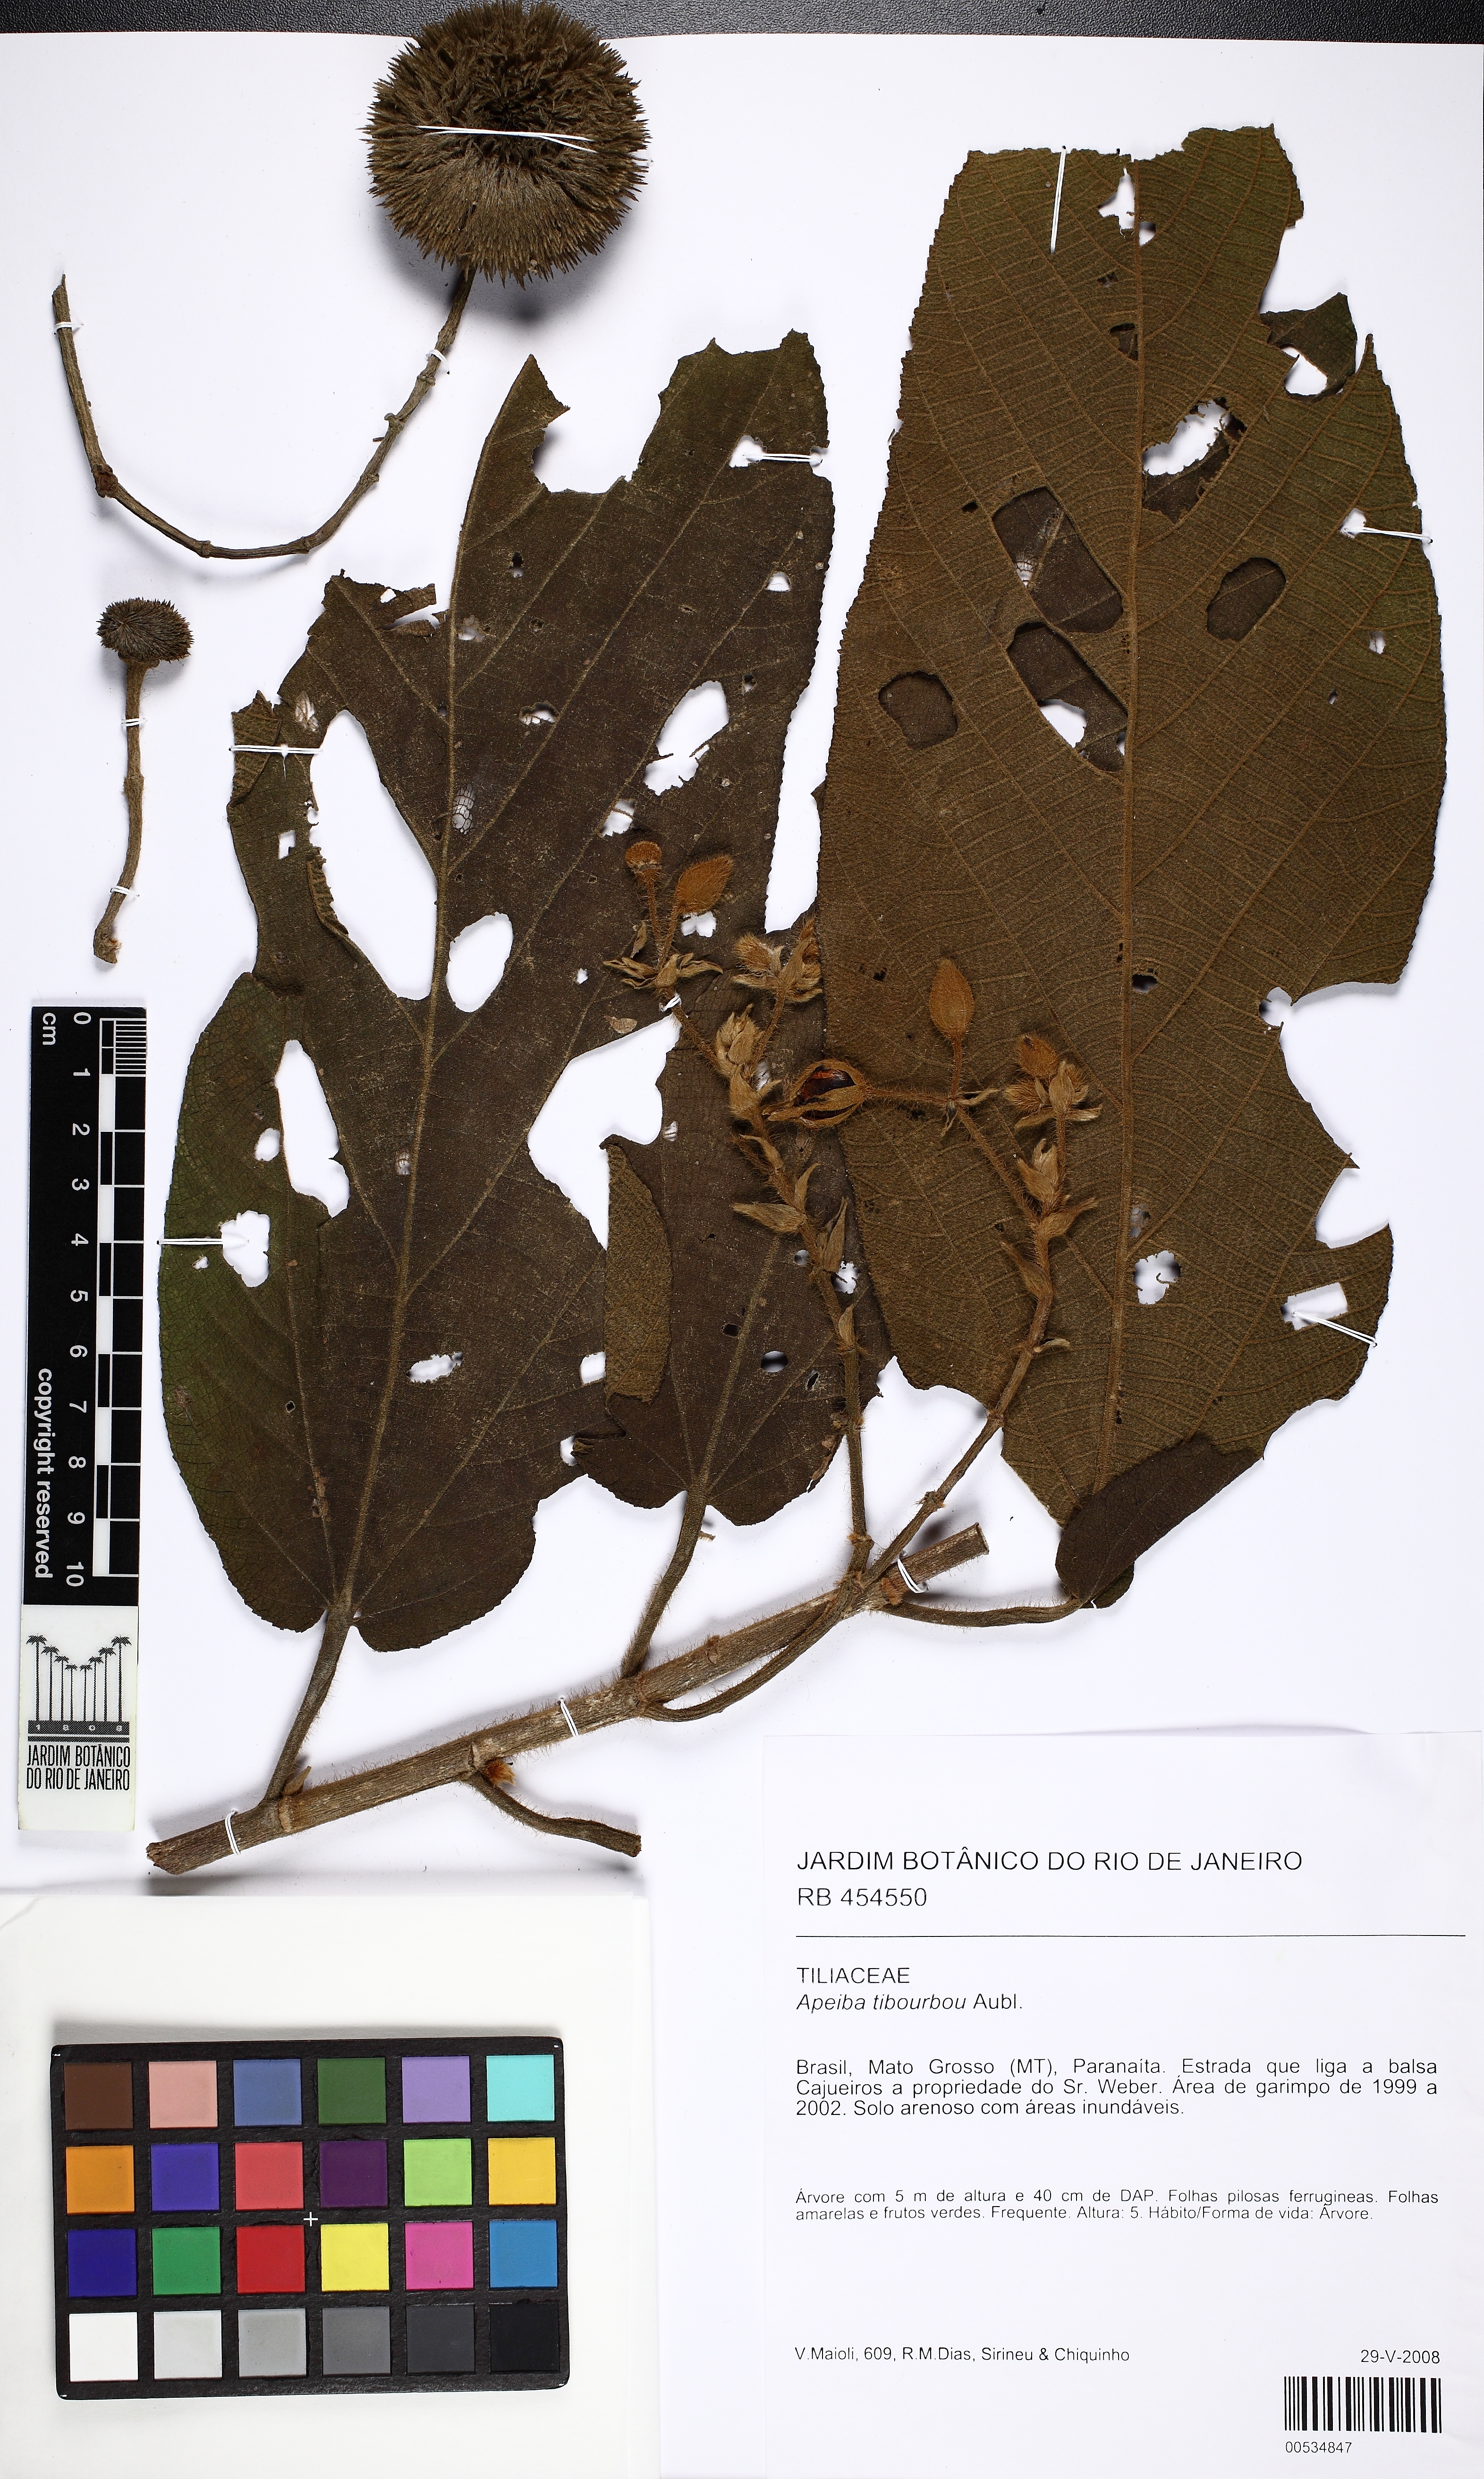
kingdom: Plantae
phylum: Tracheophyta
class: Magnoliopsida
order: Malvales
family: Malvaceae
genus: Apeiba
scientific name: Apeiba tibourbou
